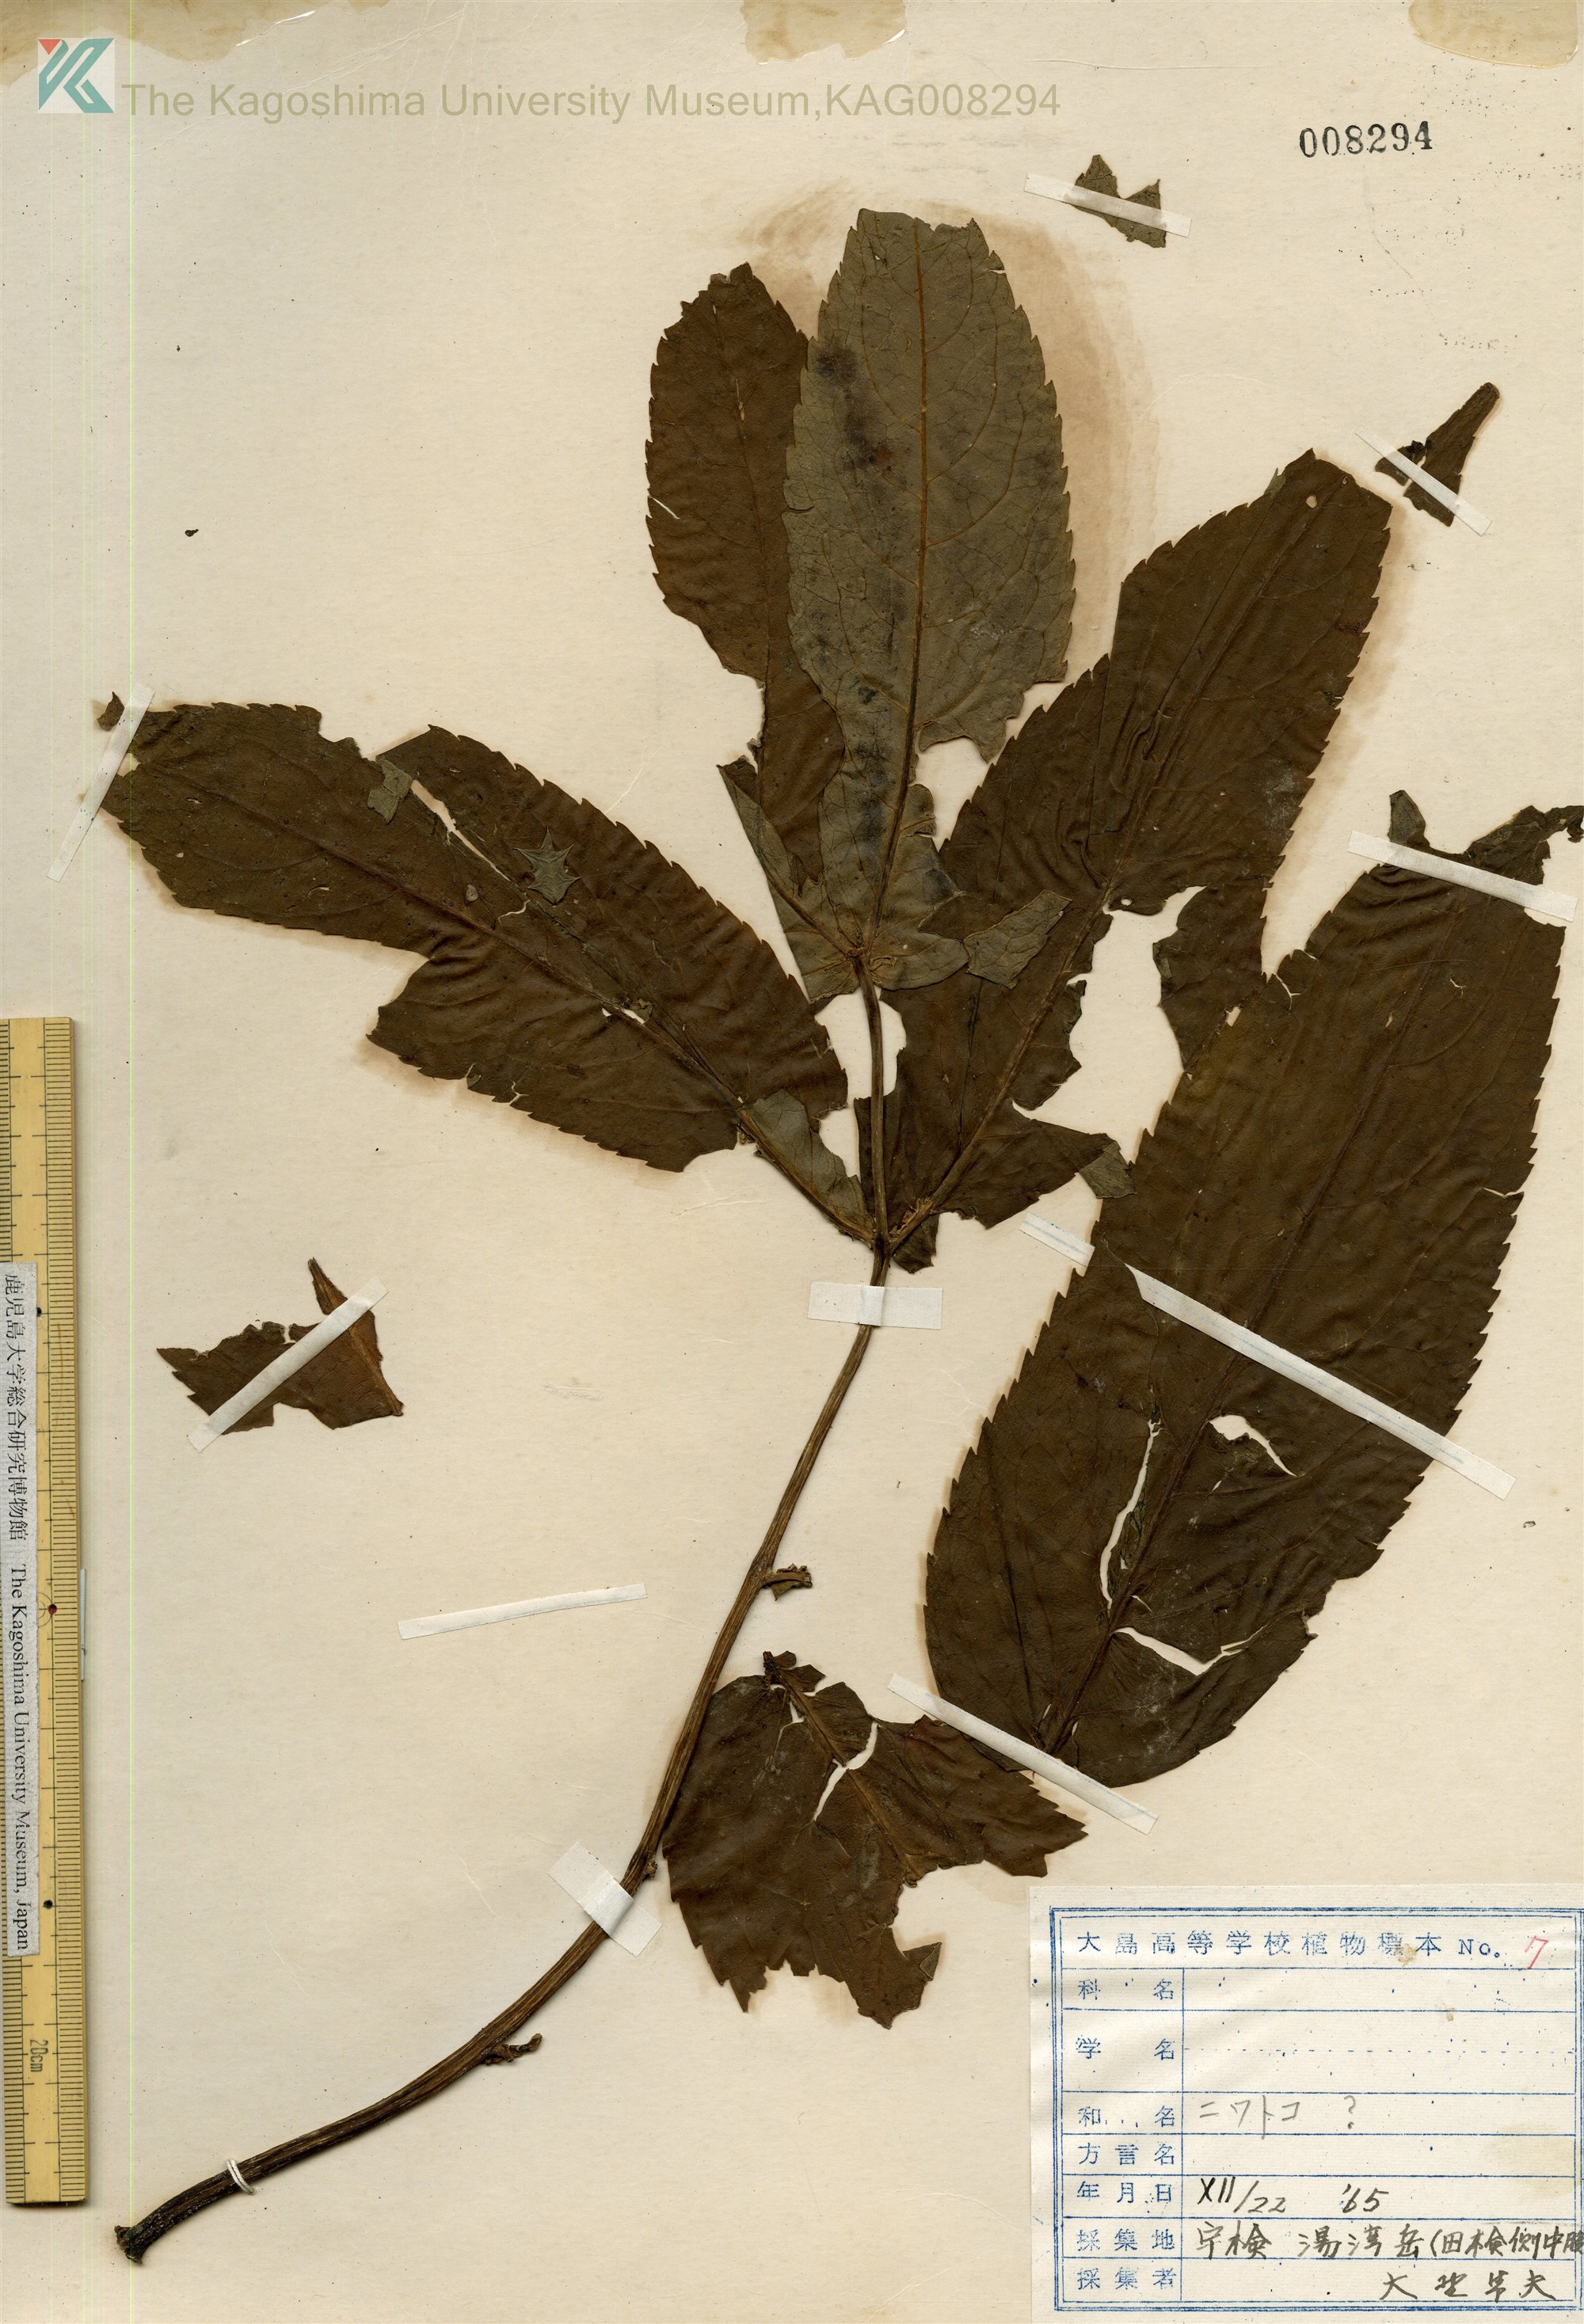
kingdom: Plantae
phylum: Tracheophyta
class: Magnoliopsida
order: Dipsacales
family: Viburnaceae
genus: Sambucus
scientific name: Sambucus javanica
